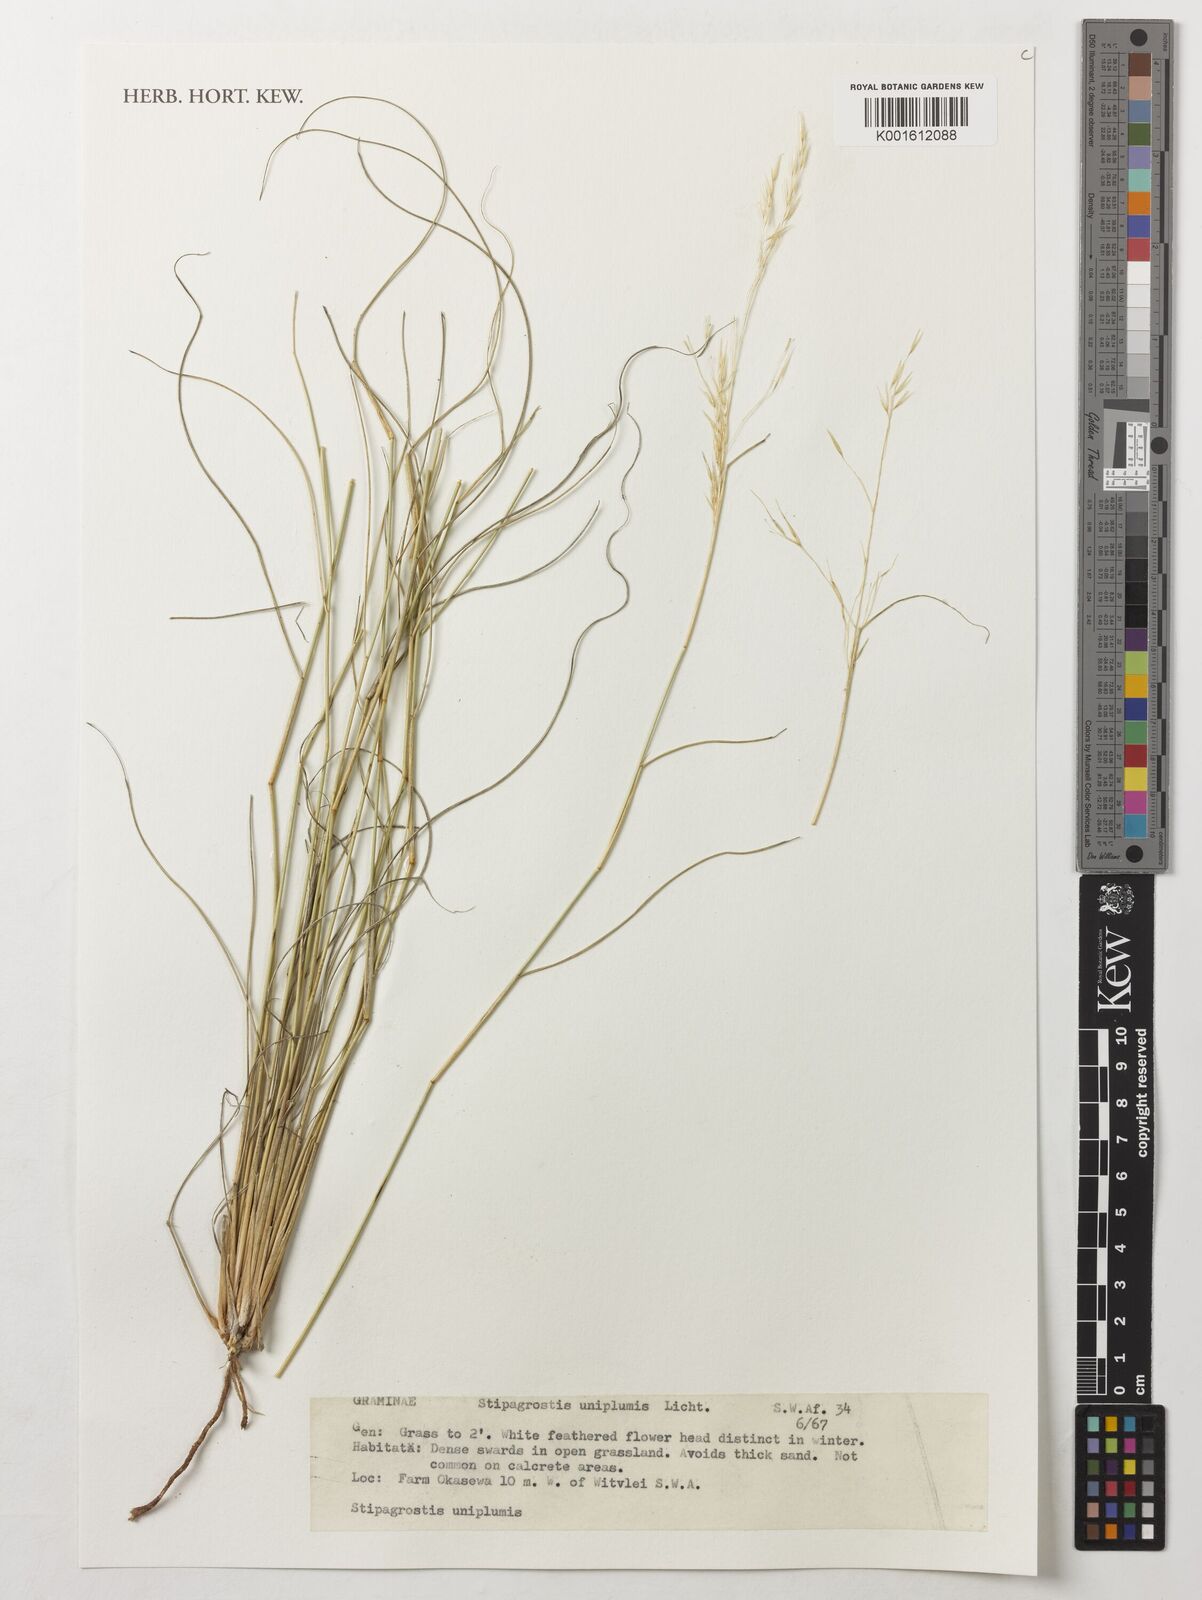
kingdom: Plantae
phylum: Tracheophyta
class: Liliopsida
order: Poales
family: Poaceae
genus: Stipagrostis
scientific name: Stipagrostis uniplumis
